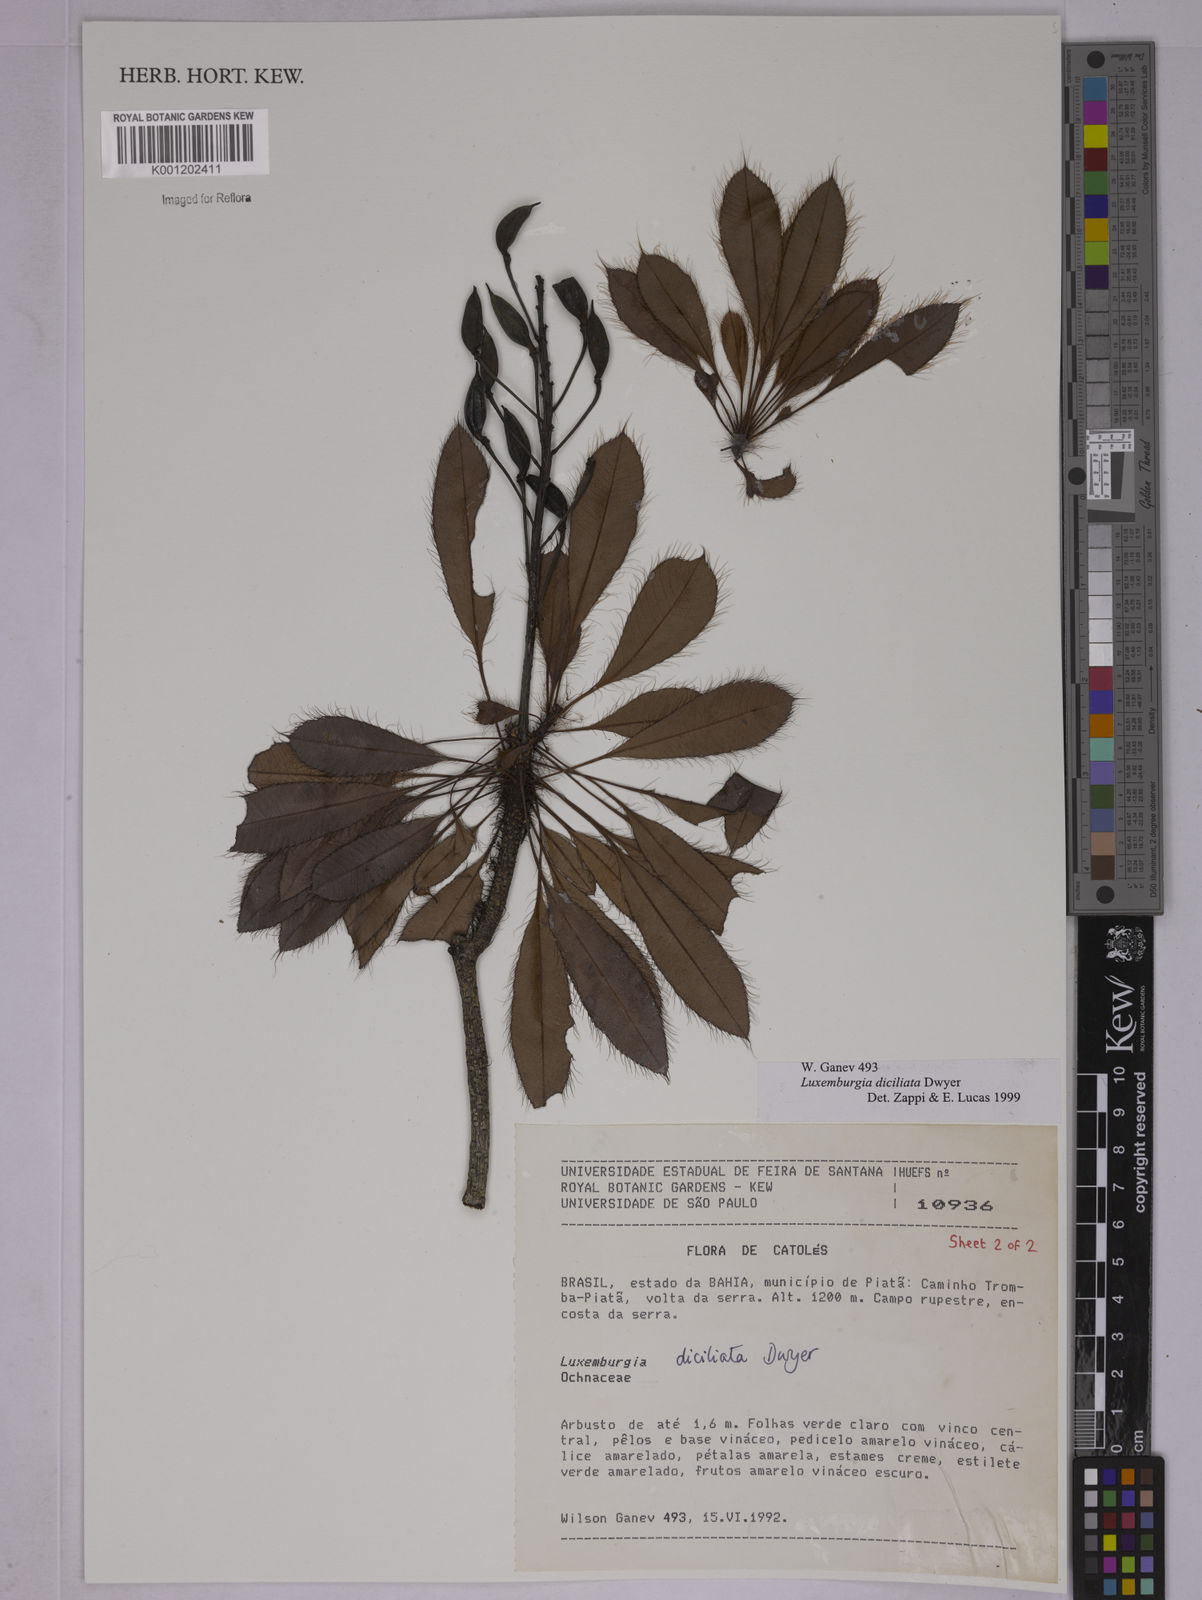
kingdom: Plantae
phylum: Tracheophyta
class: Magnoliopsida
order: Malpighiales
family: Ochnaceae
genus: Luxemburgia
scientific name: Luxemburgia diciliata
